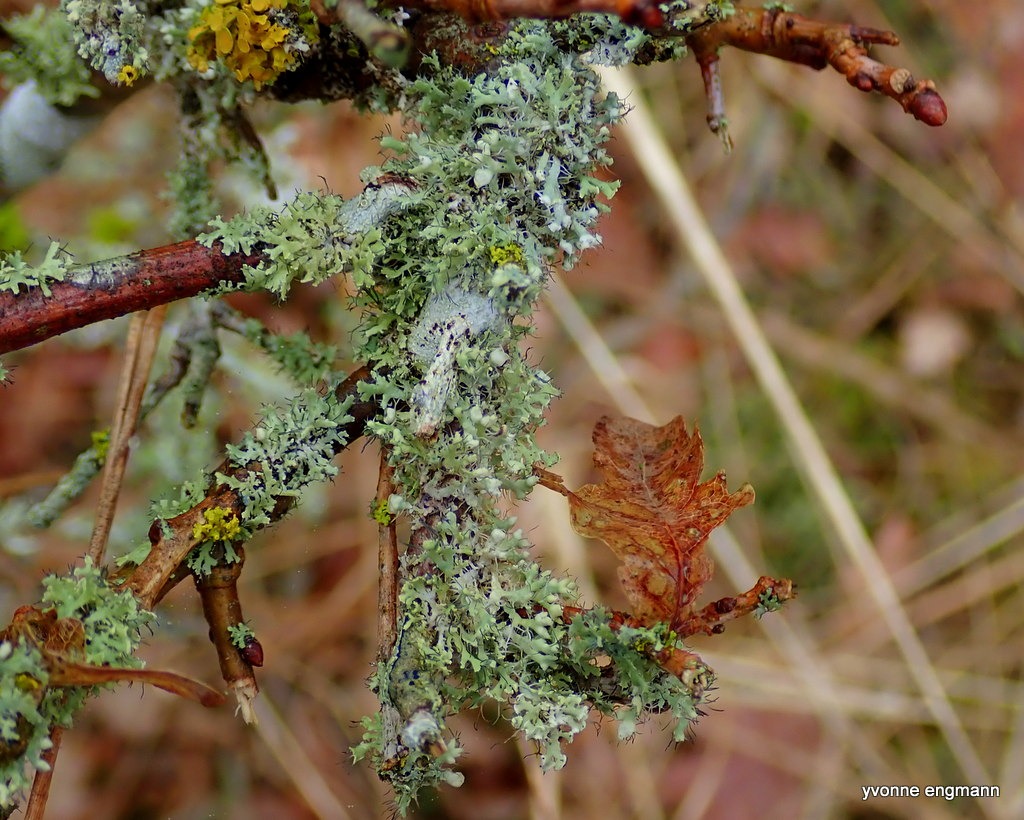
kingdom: Fungi
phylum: Ascomycota
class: Lecanoromycetes
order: Caliciales
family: Physciaceae
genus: Physcia
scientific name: Physcia tenella
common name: Spæd rosetlav
